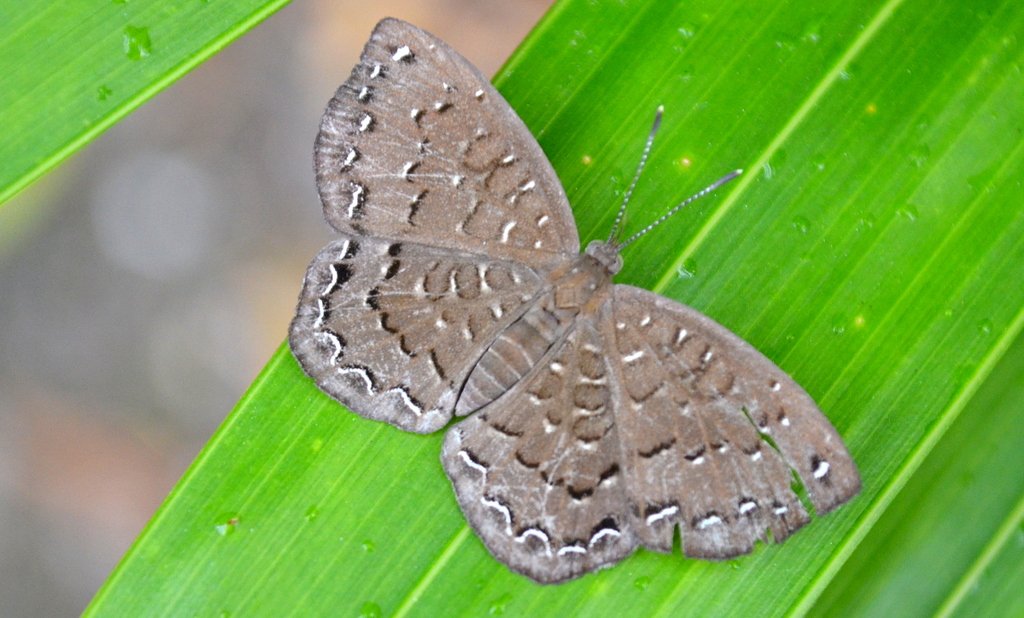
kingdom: Animalia
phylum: Arthropoda
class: Insecta
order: Lepidoptera
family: Riodinidae
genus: Voltinia
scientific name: Voltinia umbra
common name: Quilted Metalmark
